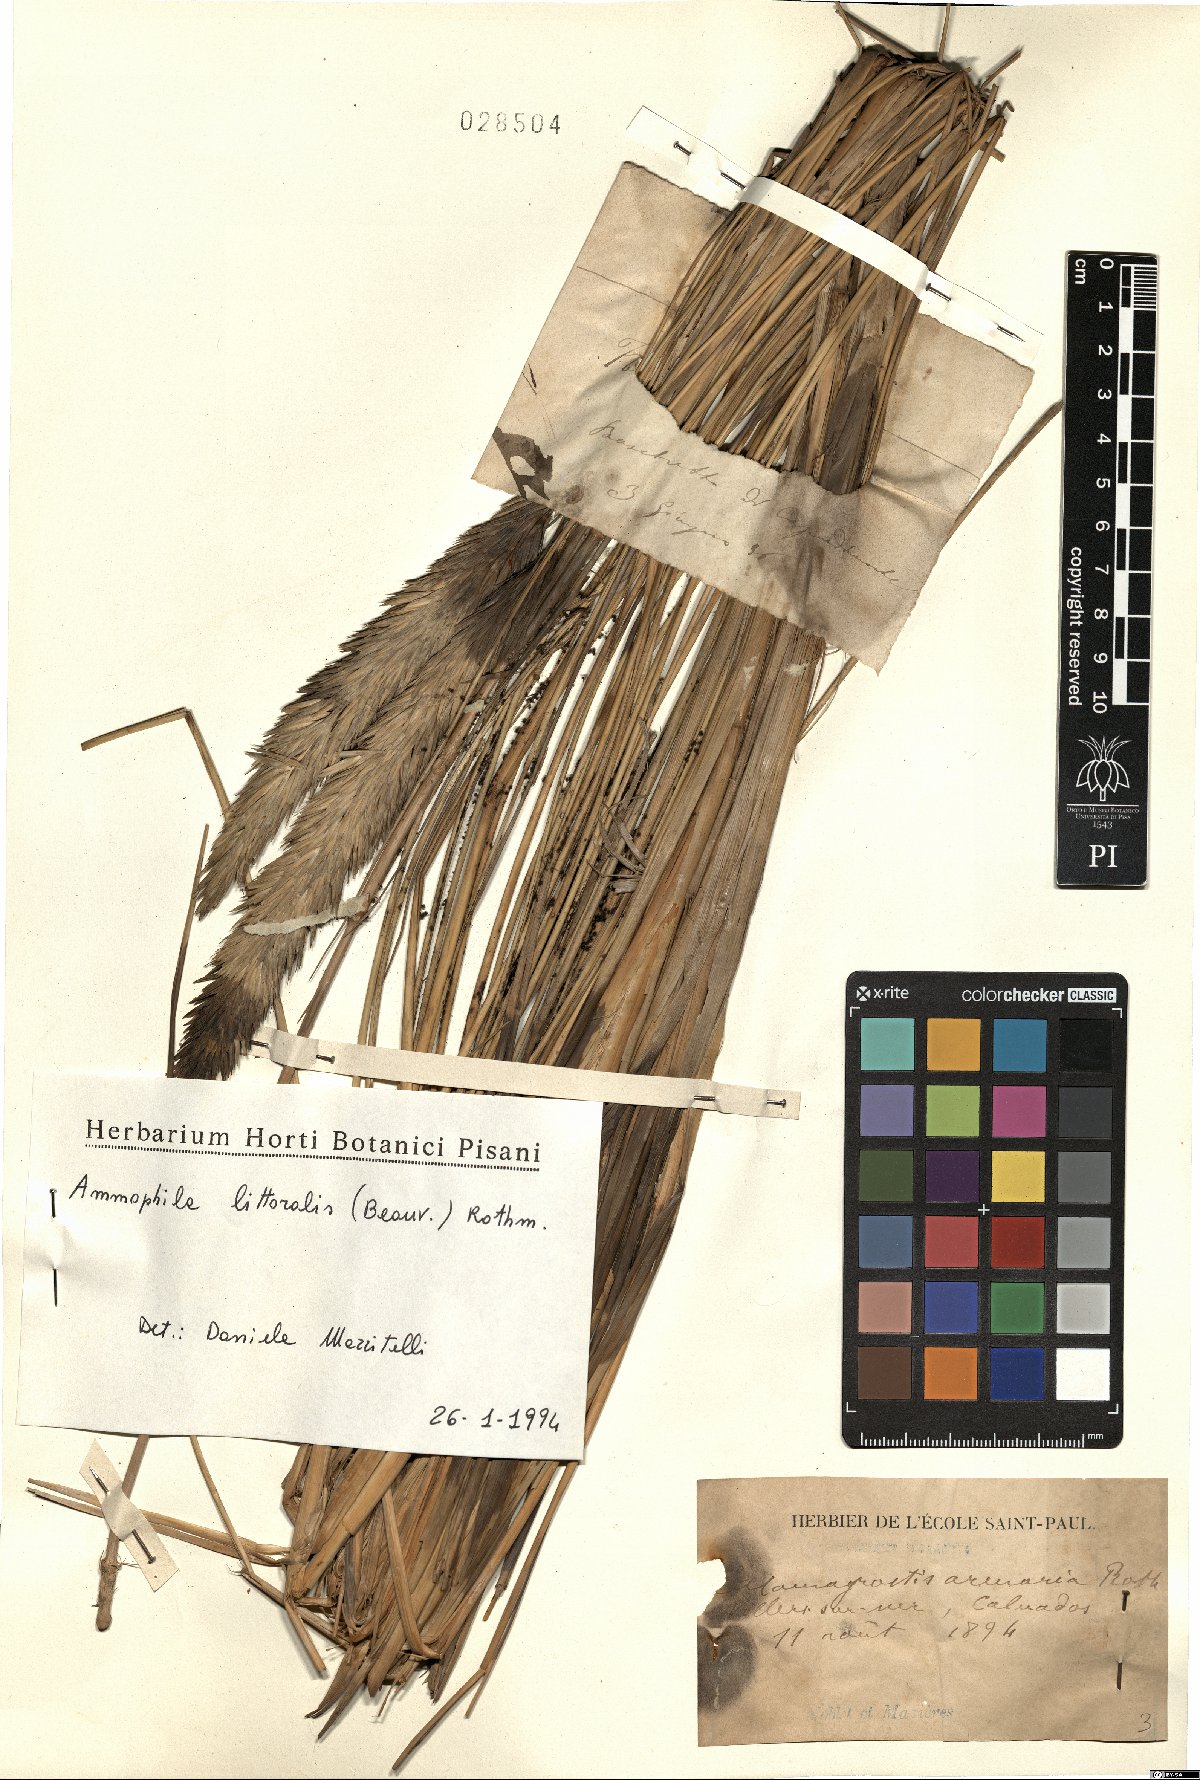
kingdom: Plantae
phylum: Tracheophyta
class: Liliopsida
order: Poales
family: Poaceae
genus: Calamagrostis
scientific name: Calamagrostis arenaria
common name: European beachgrass
